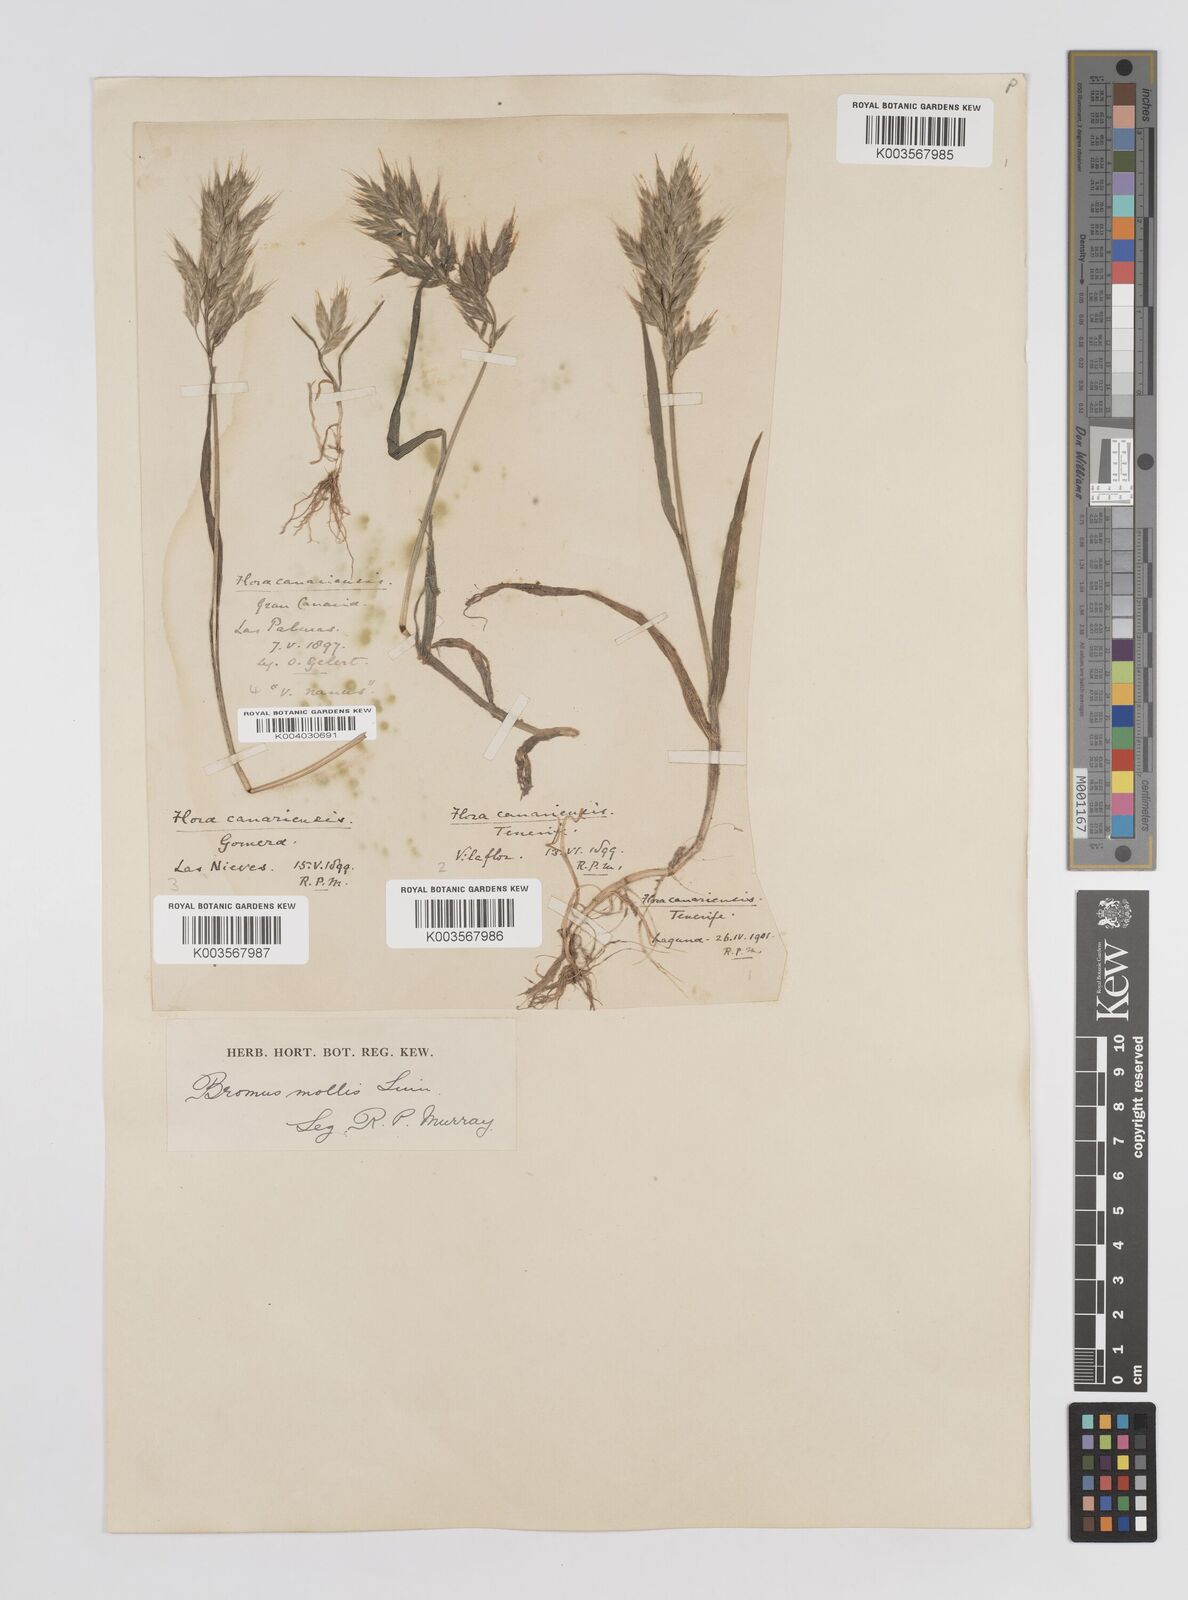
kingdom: Plantae
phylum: Tracheophyta
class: Liliopsida
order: Poales
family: Poaceae
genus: Bromus
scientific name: Bromus
